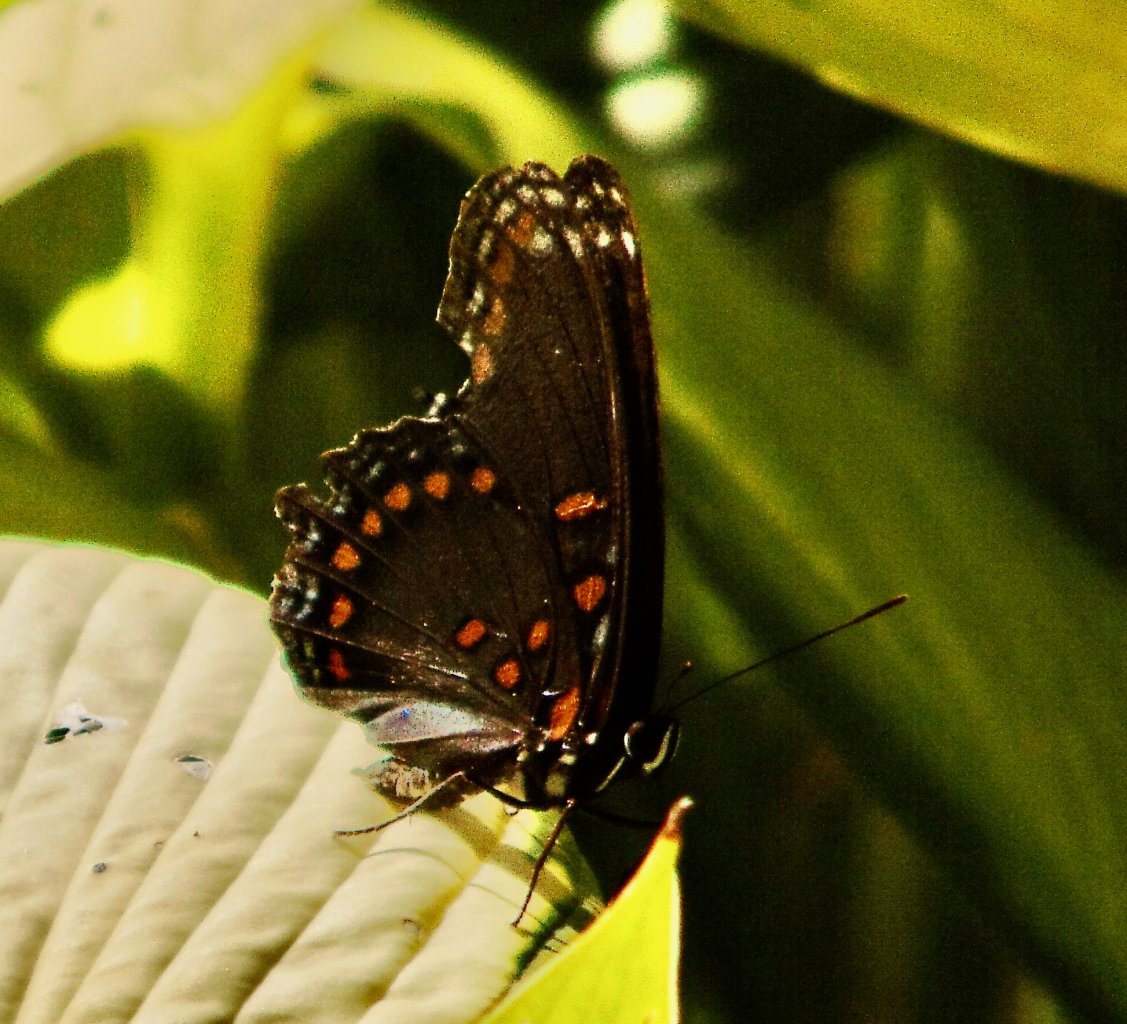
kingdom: Animalia
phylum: Arthropoda
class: Insecta
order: Lepidoptera
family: Nymphalidae
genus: Limenitis
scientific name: Limenitis astyanax
